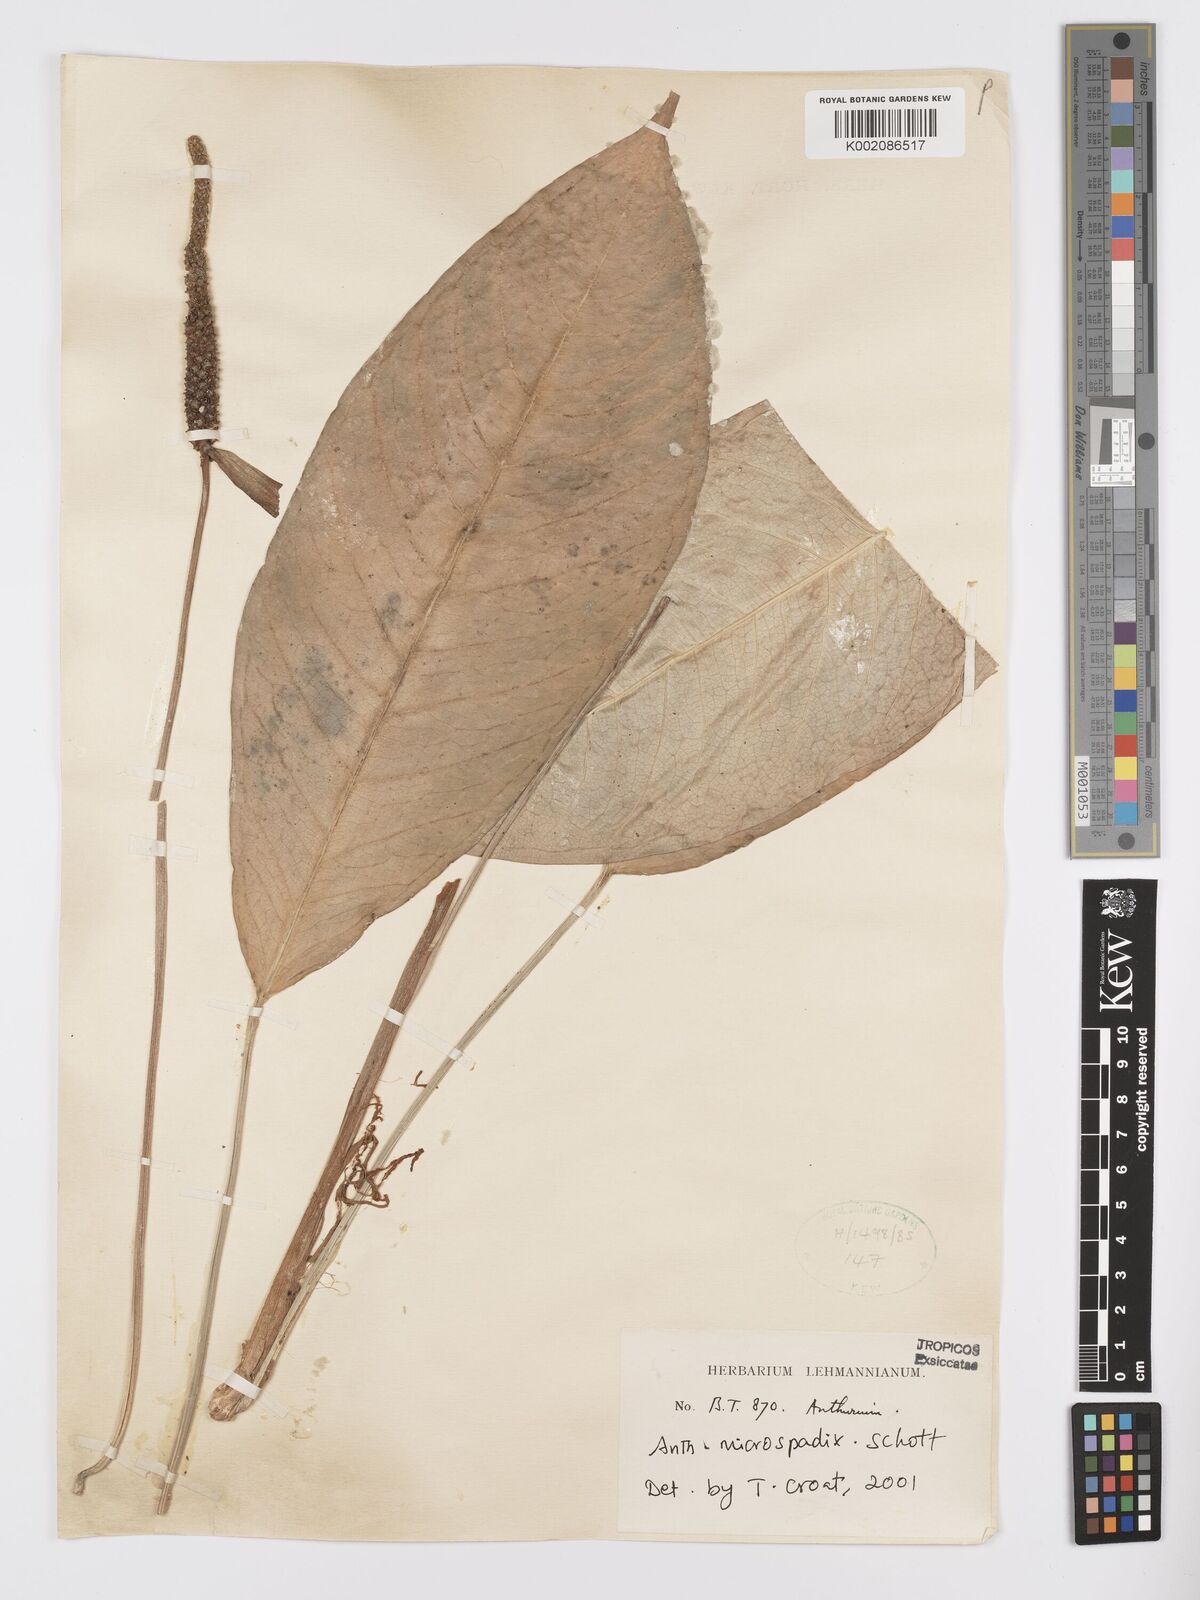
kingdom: Plantae
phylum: Tracheophyta
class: Liliopsida
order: Alismatales
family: Araceae
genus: Anthurium
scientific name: Anthurium microspadix
